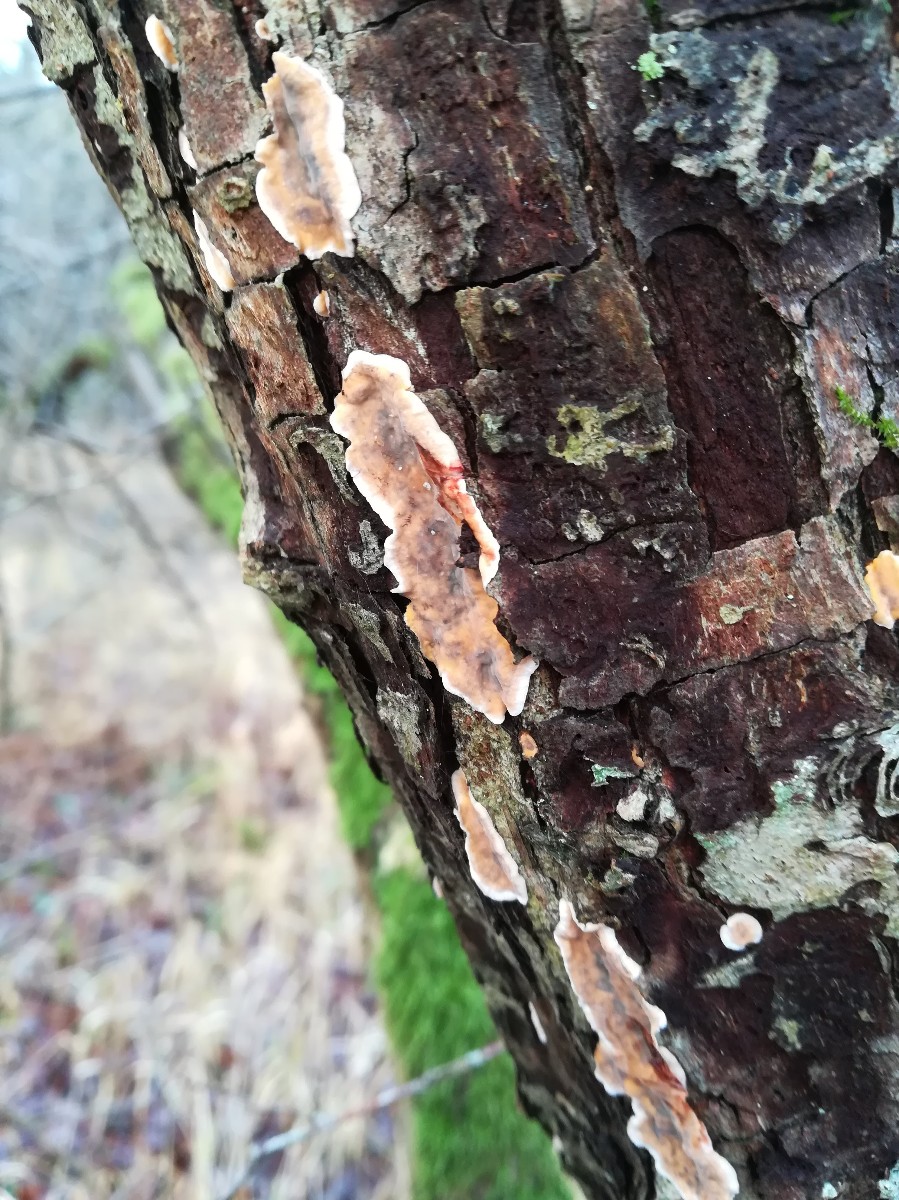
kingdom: Fungi
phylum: Basidiomycota
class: Agaricomycetes
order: Russulales
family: Stereaceae
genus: Stereum
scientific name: Stereum rugosum
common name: rynket lædersvamp
